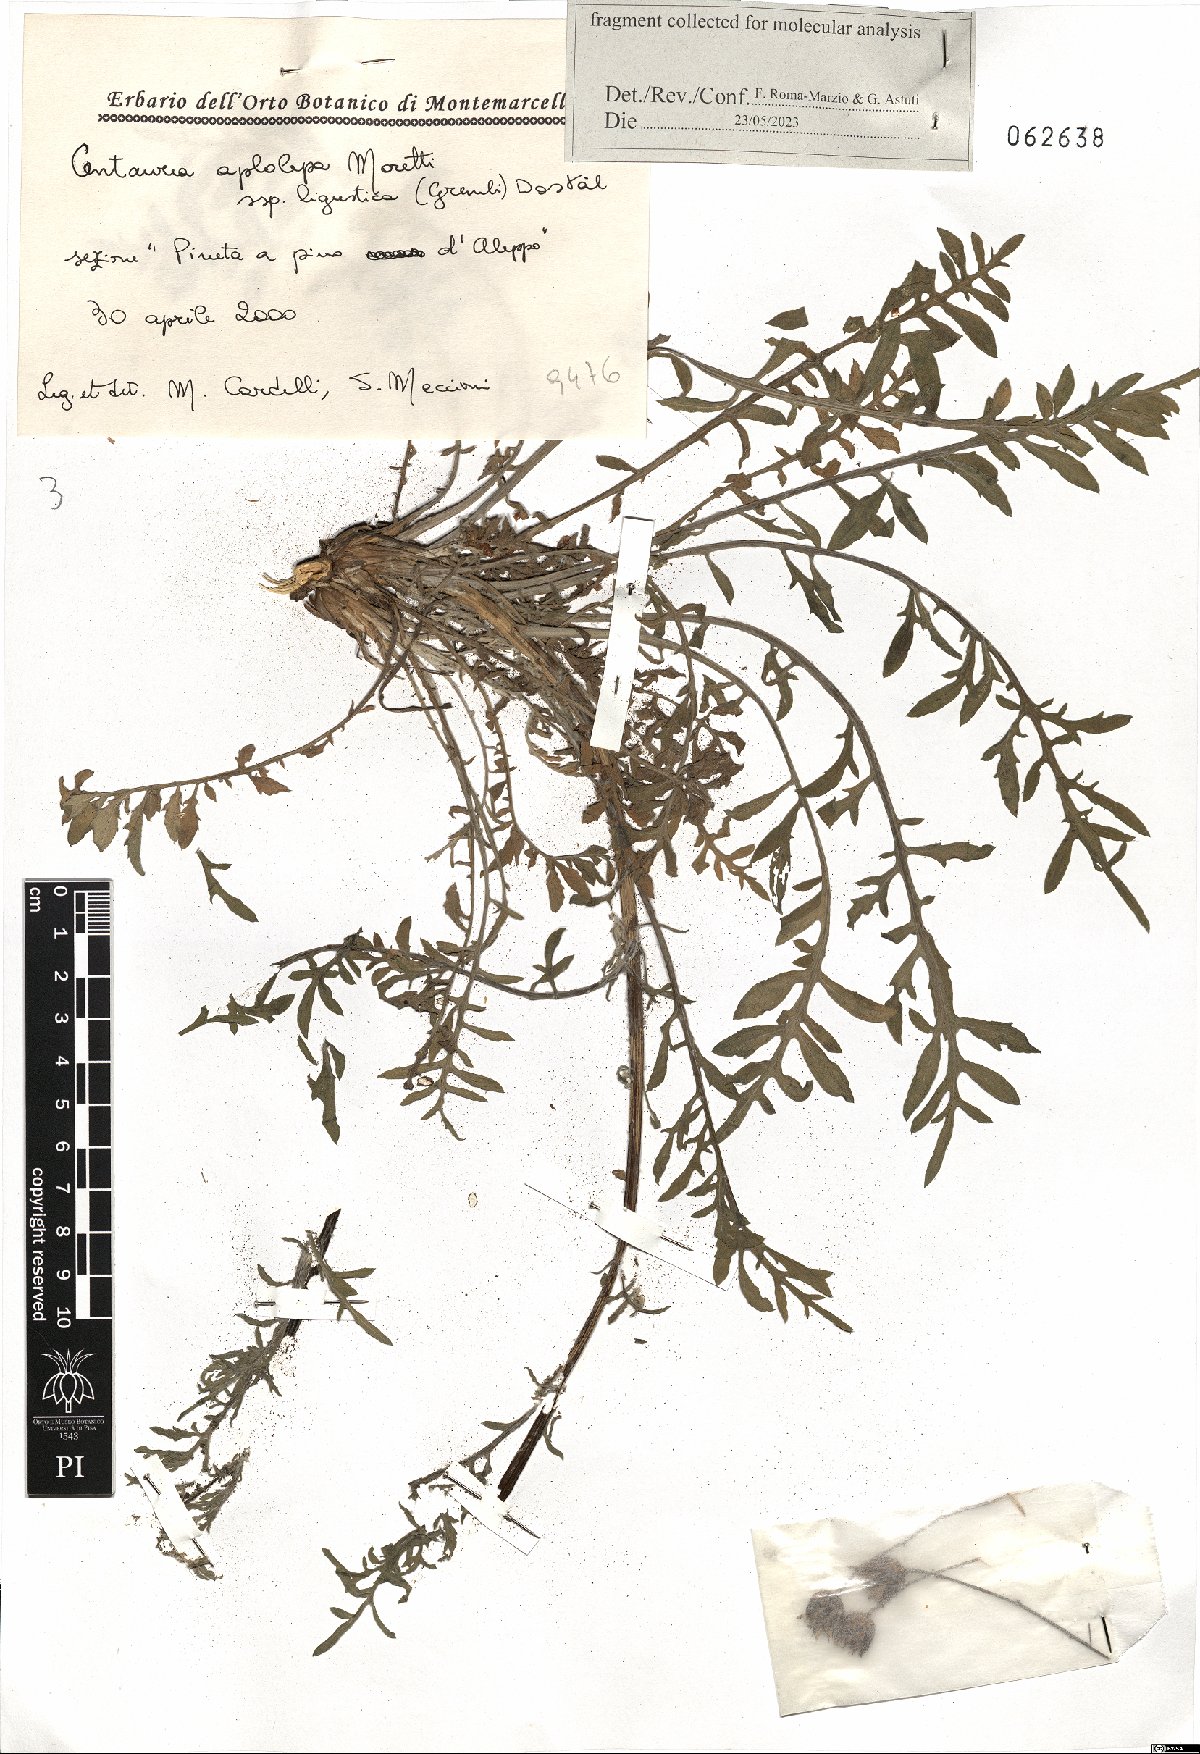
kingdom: Plantae
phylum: Tracheophyta
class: Magnoliopsida
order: Asterales
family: Asteraceae
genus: Centaurea
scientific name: Centaurea aplolepa
